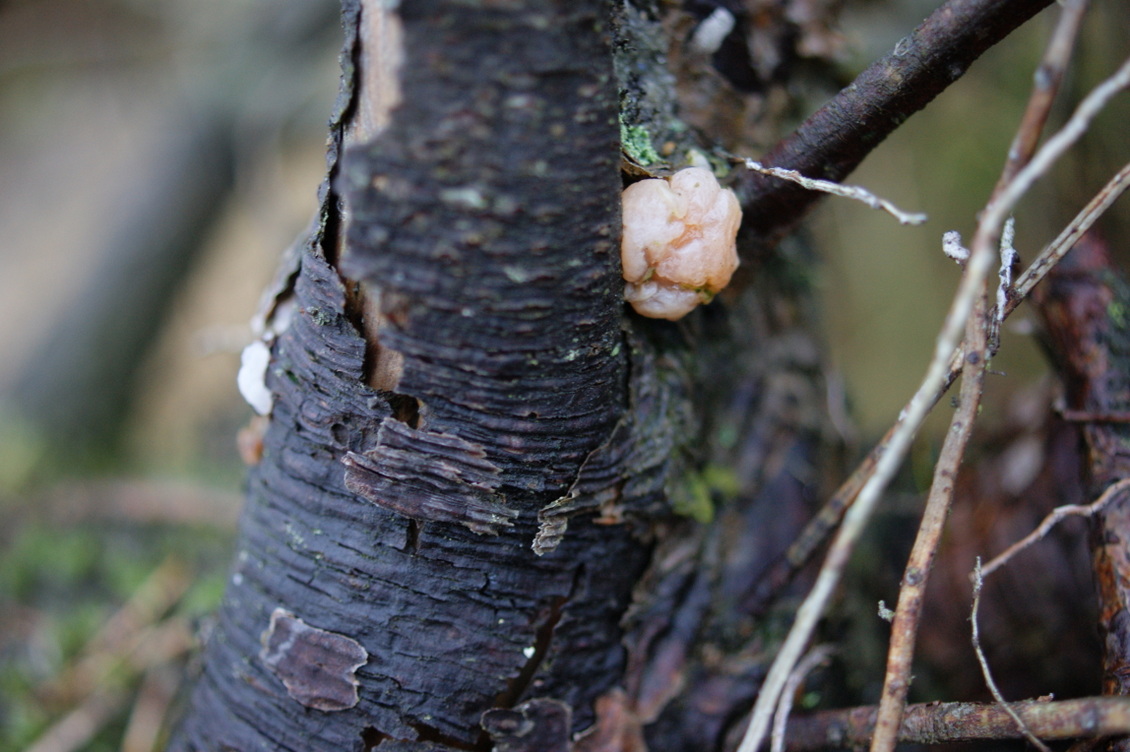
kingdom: Fungi
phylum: Basidiomycota
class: Tremellomycetes
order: Tremellales
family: Naemateliaceae
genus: Naematelia
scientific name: Naematelia encephala
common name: fyrre-bævresvamp
